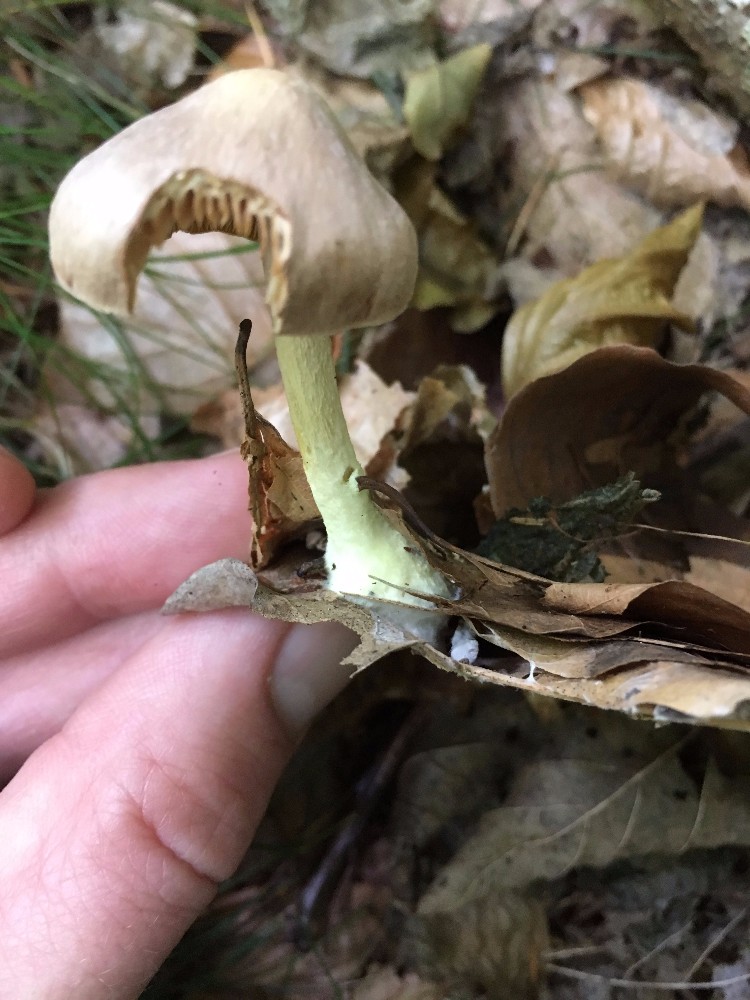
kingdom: Fungi
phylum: Basidiomycota
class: Agaricomycetes
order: Agaricales
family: Omphalotaceae
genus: Collybiopsis
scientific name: Collybiopsis peronata
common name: bestøvlet fladhat
